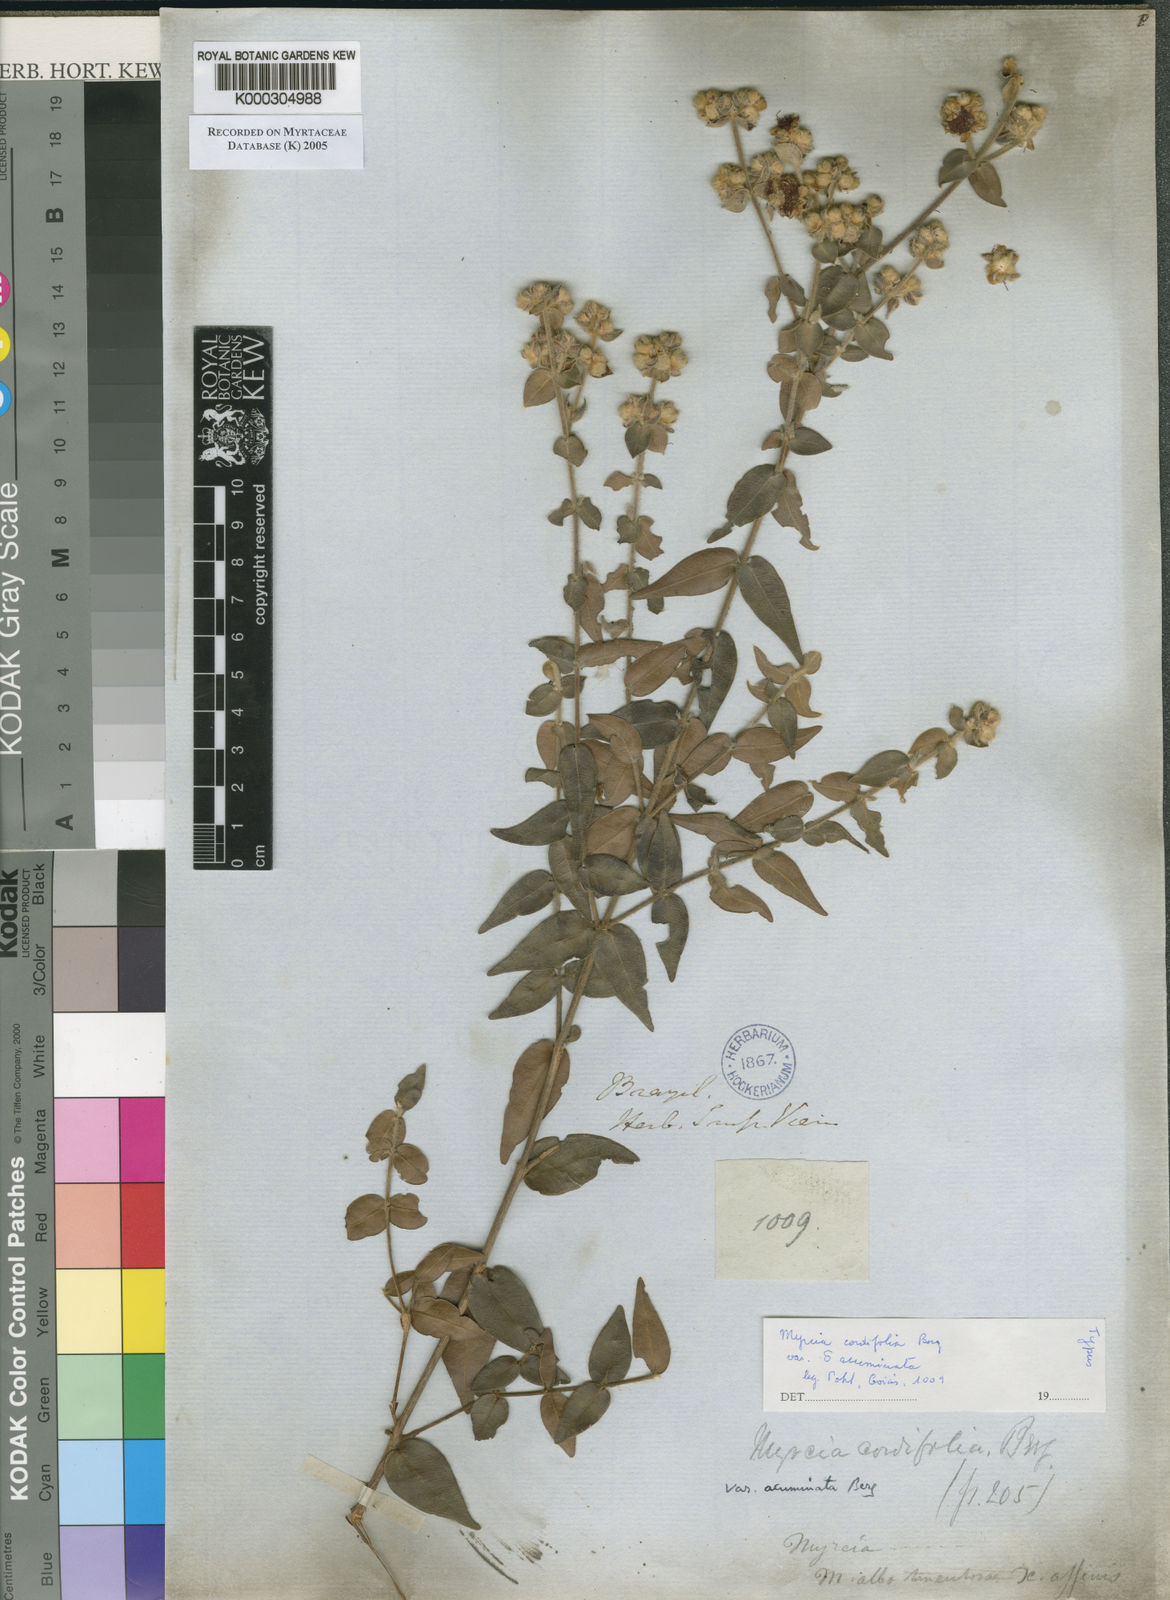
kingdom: Plantae
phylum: Tracheophyta
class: Magnoliopsida
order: Myrtales
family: Myrtaceae
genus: Myrcia
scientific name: Myrcia lasiantha
